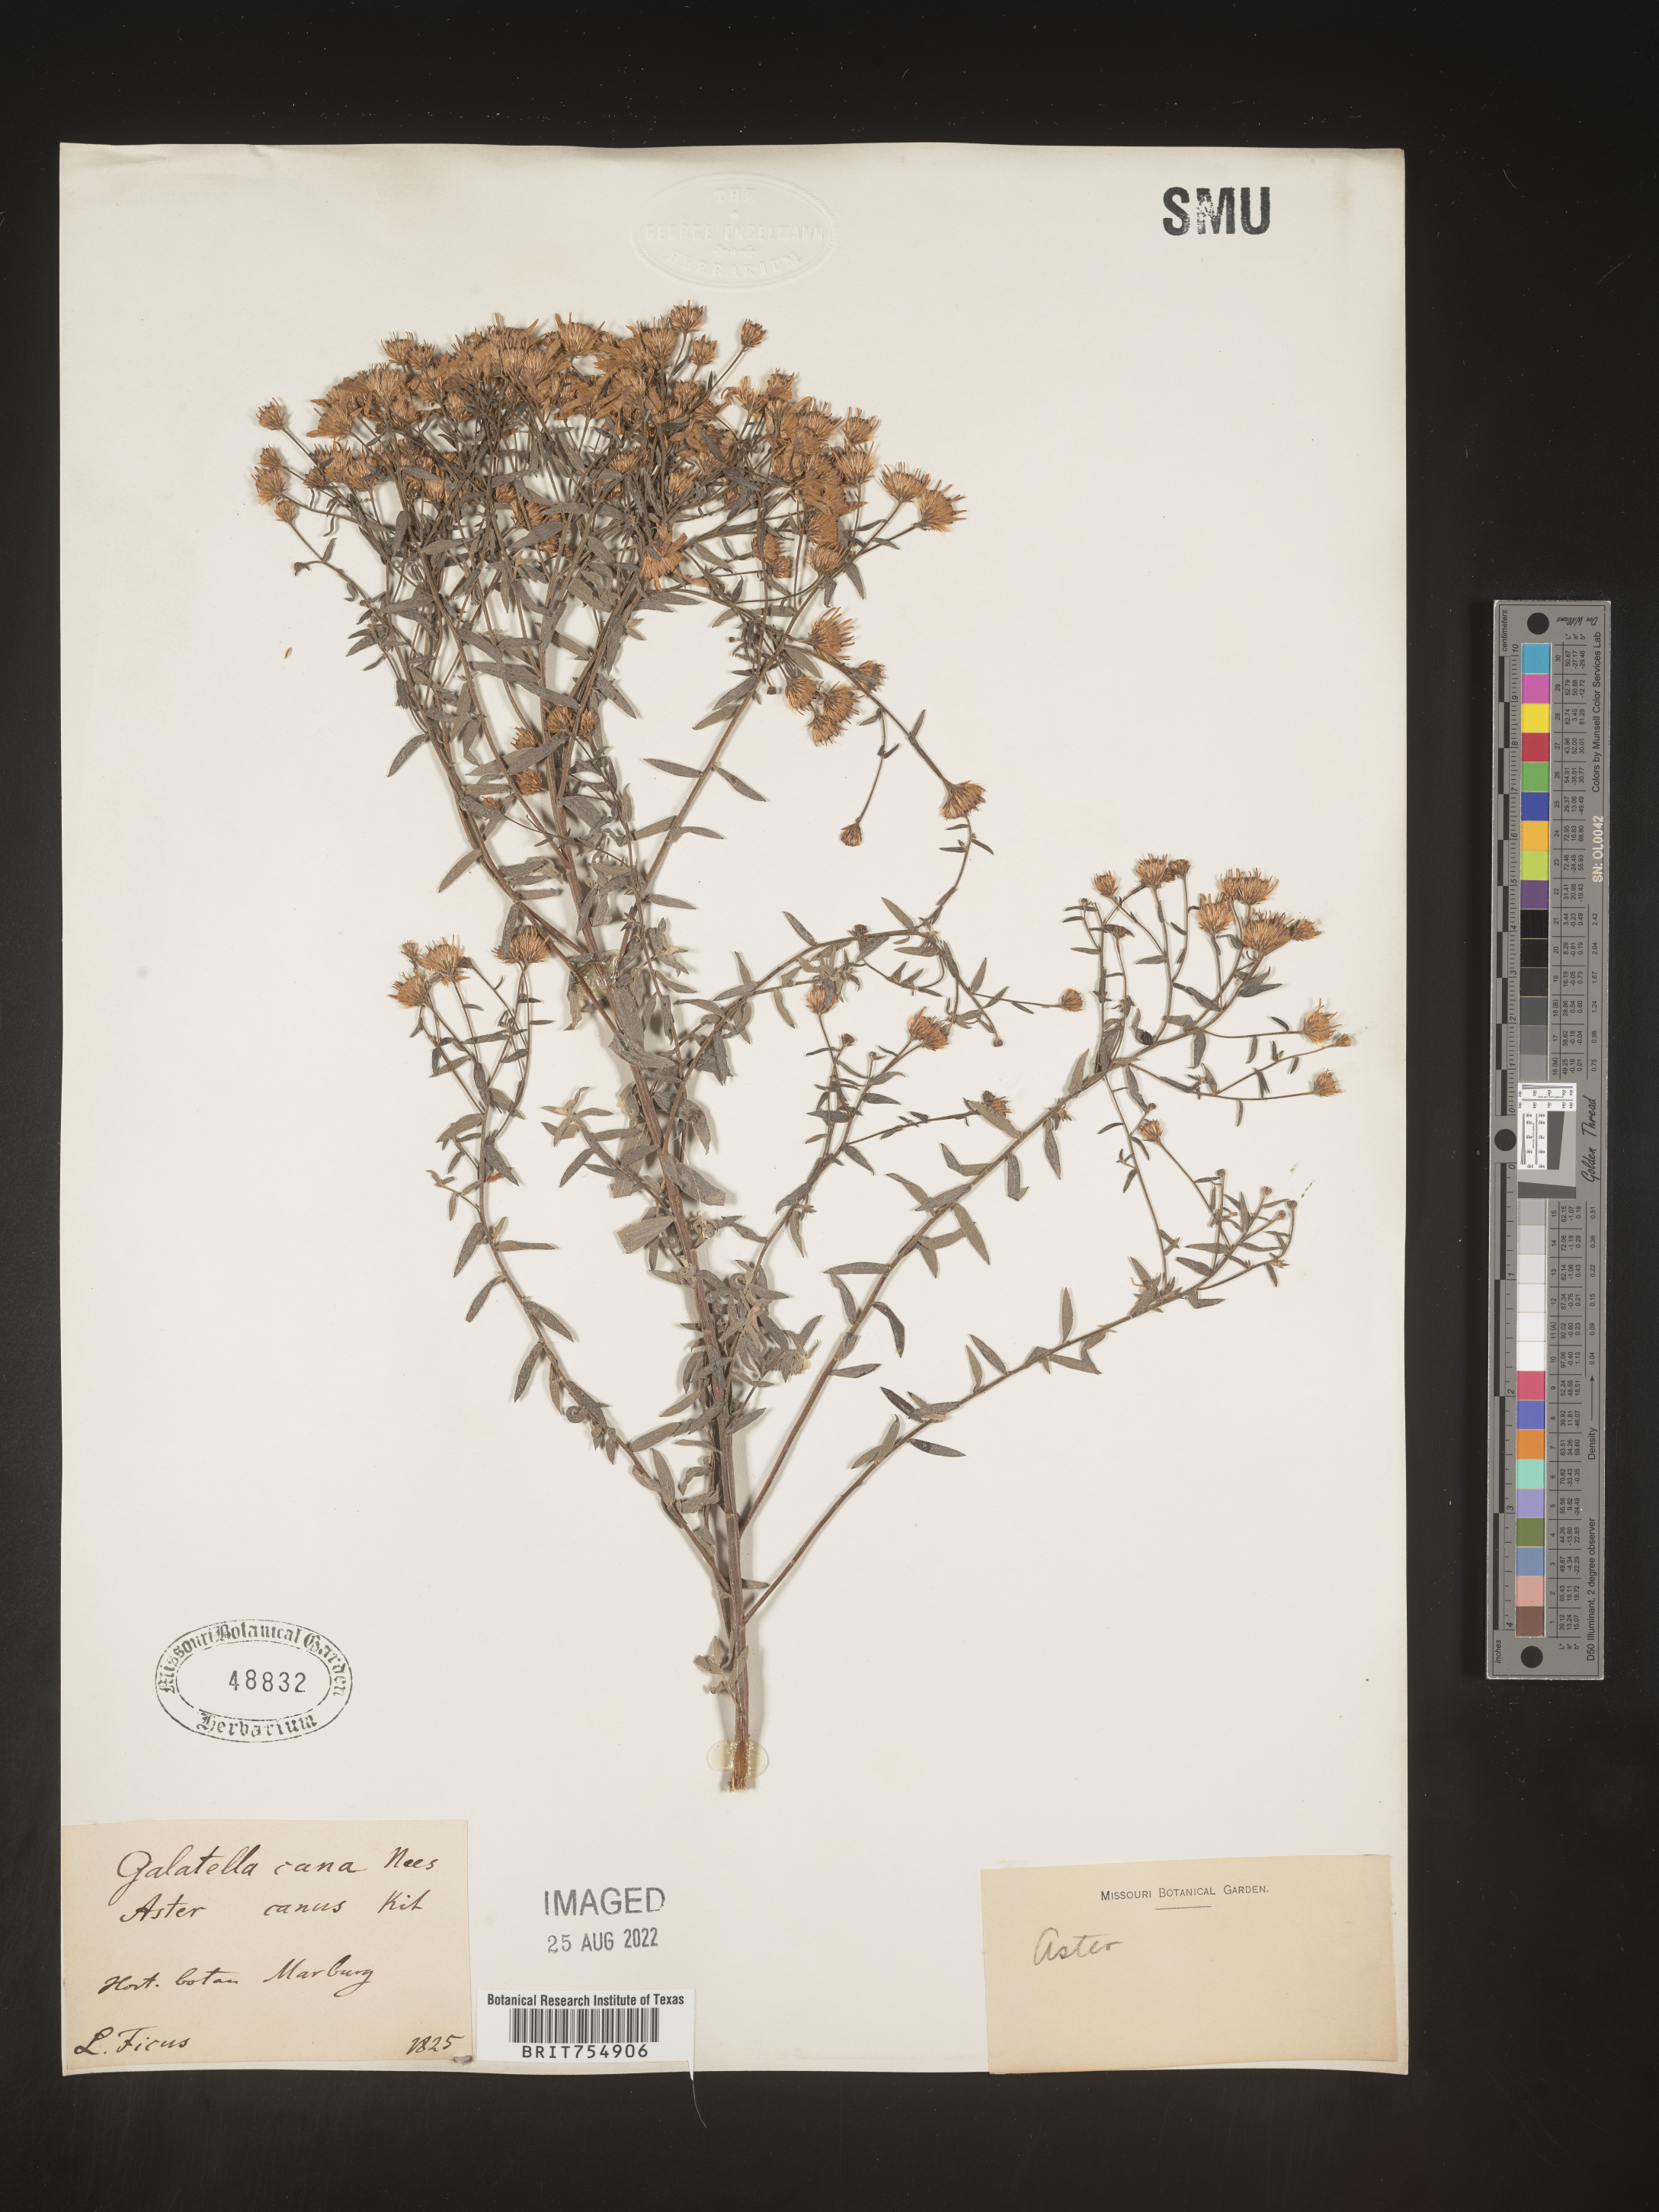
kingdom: Plantae
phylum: Tracheophyta
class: Magnoliopsida
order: Asterales
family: Asteraceae
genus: Symphyotrichum
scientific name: Symphyotrichum
